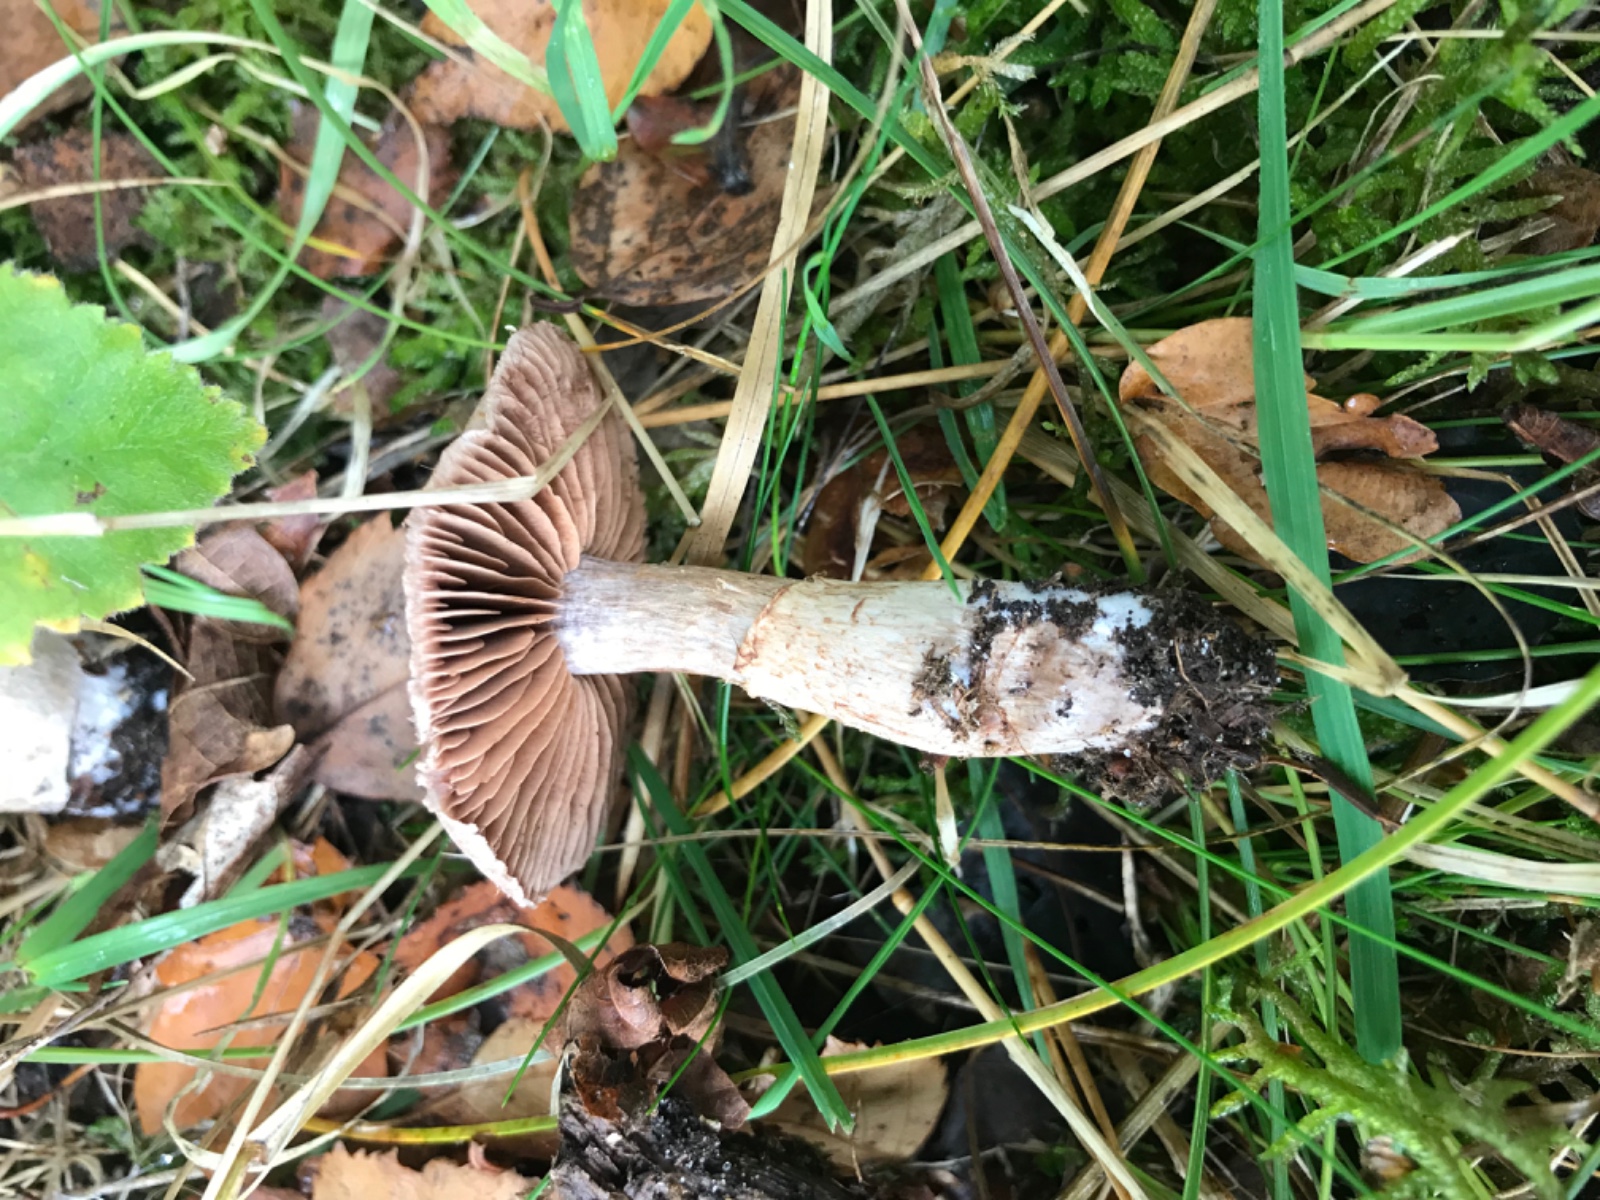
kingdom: Fungi
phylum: Basidiomycota
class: Agaricomycetes
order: Agaricales
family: Cortinariaceae
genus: Cortinarius
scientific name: Cortinarius torvus
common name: champignonagtig slørhat
